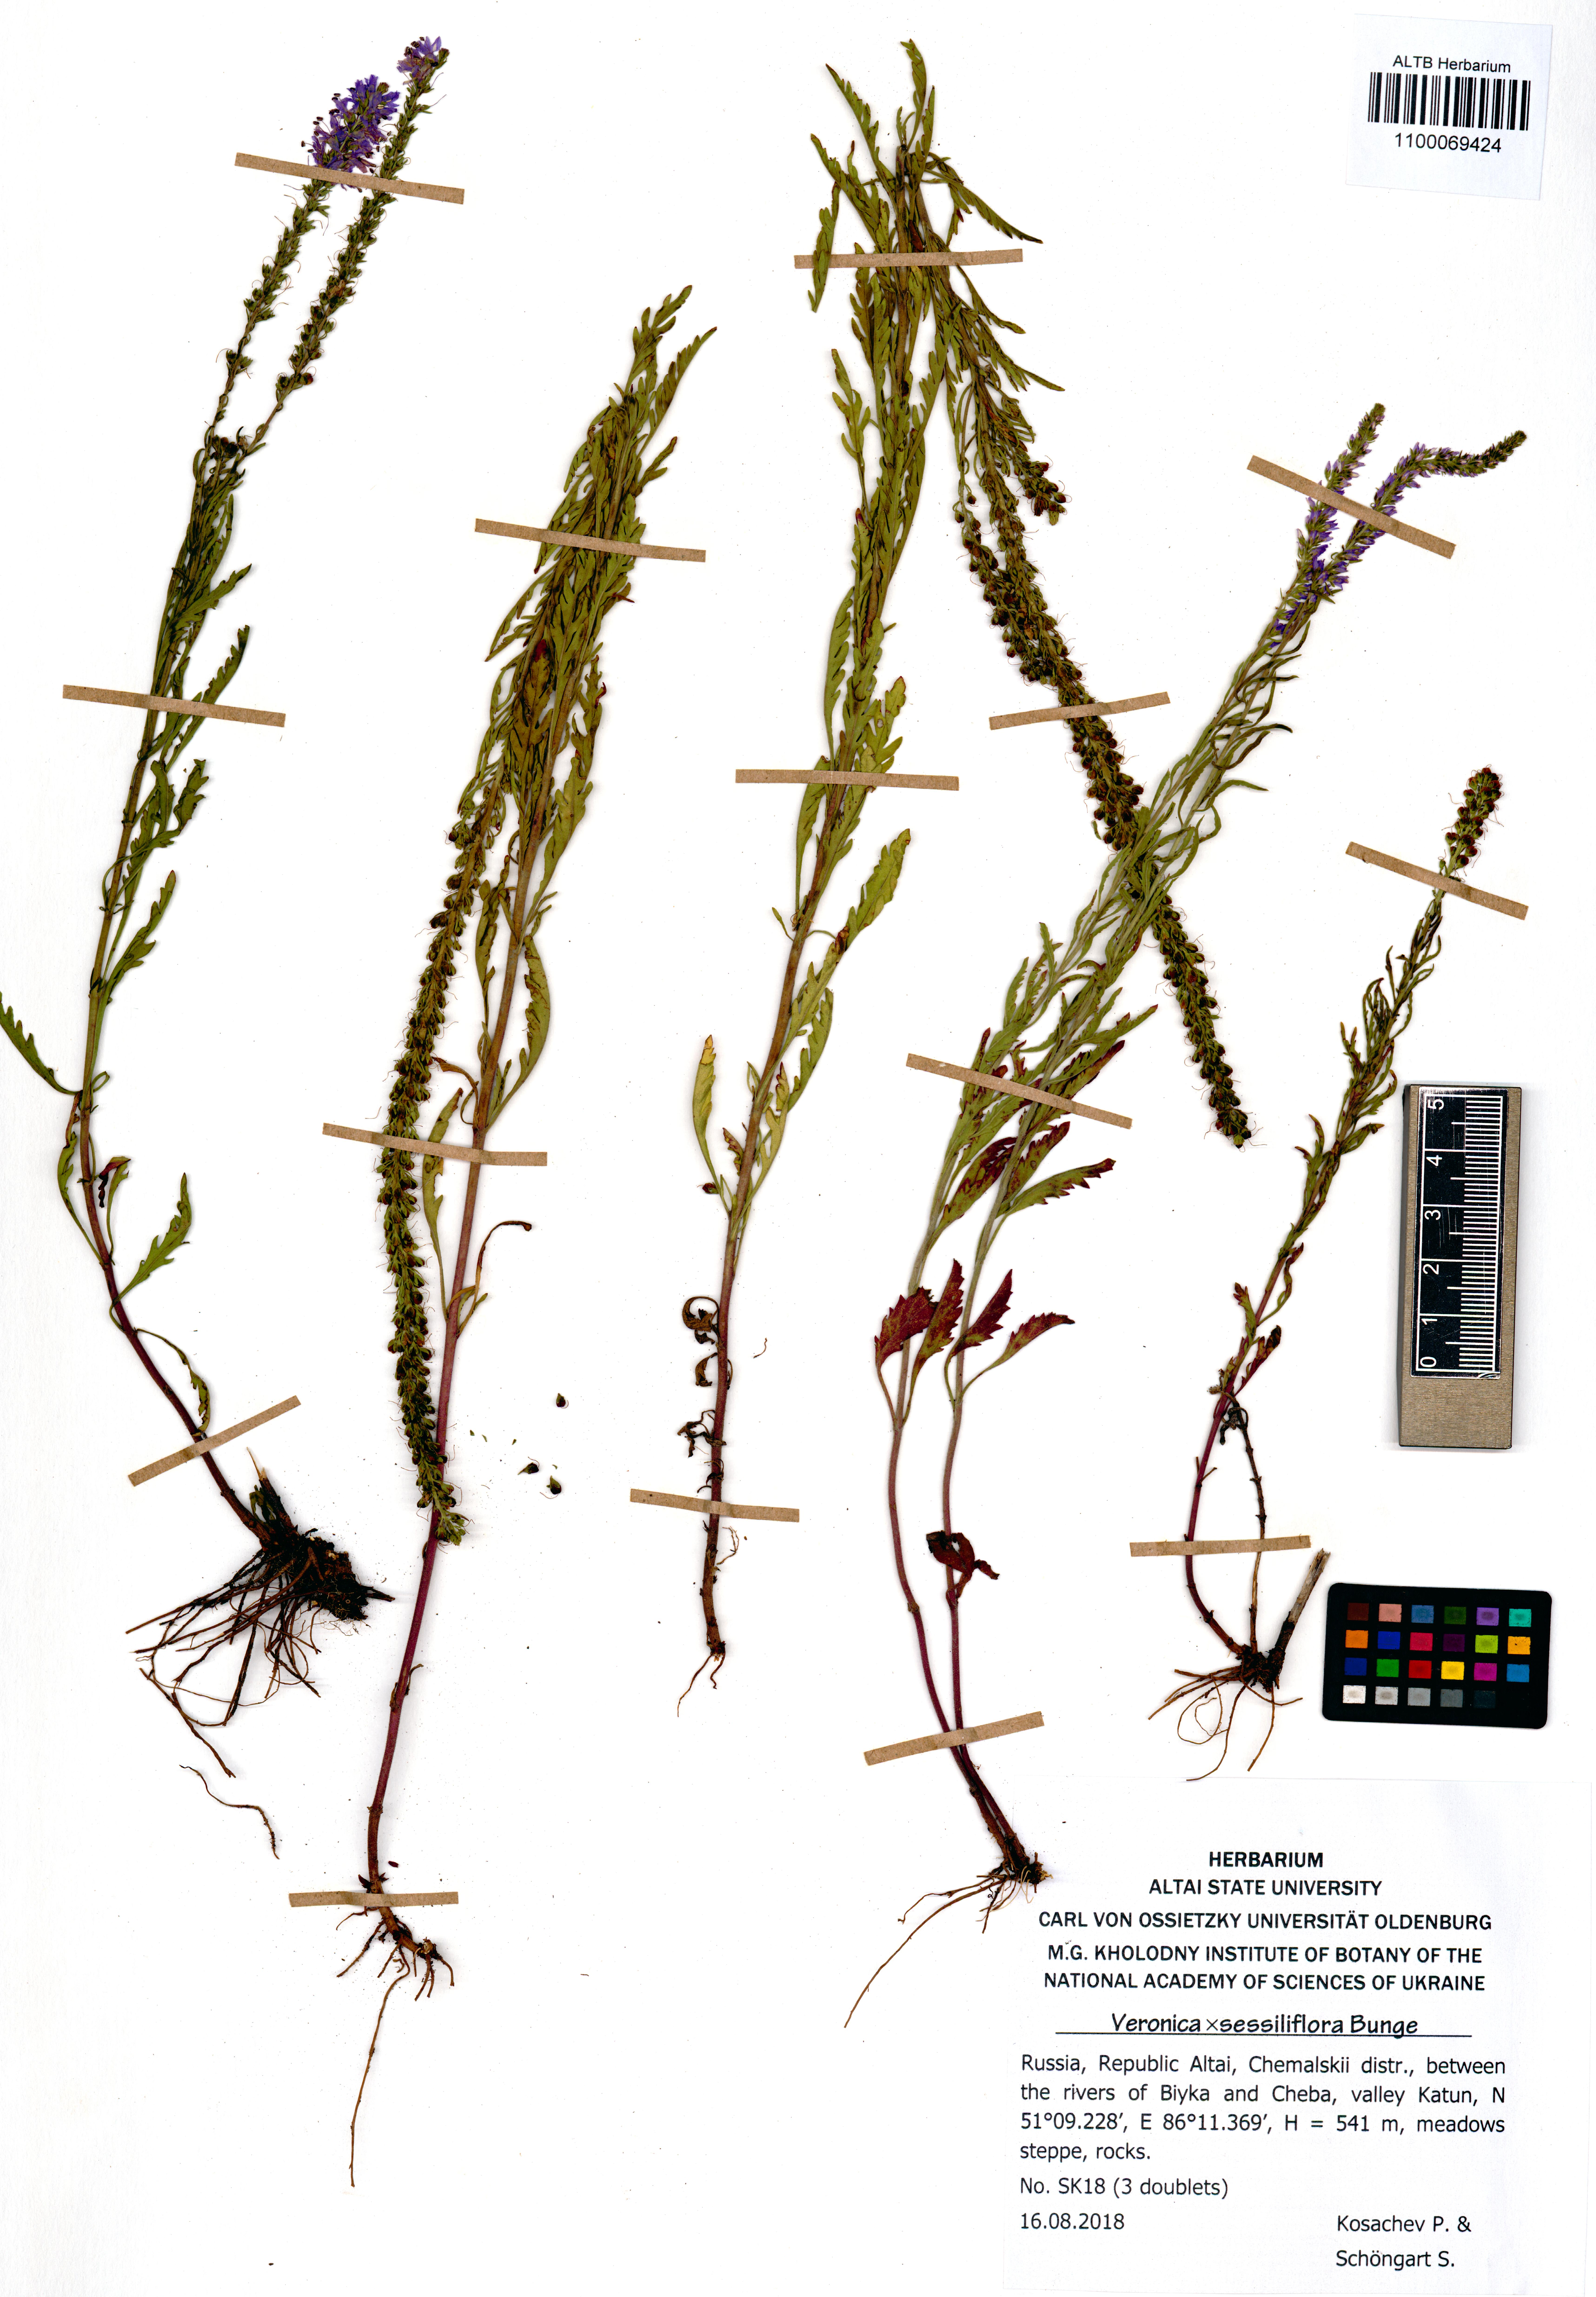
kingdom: Plantae
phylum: Tracheophyta
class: Magnoliopsida
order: Lamiales
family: Plantaginaceae
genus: Veronica
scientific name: Veronica sessiliflora
